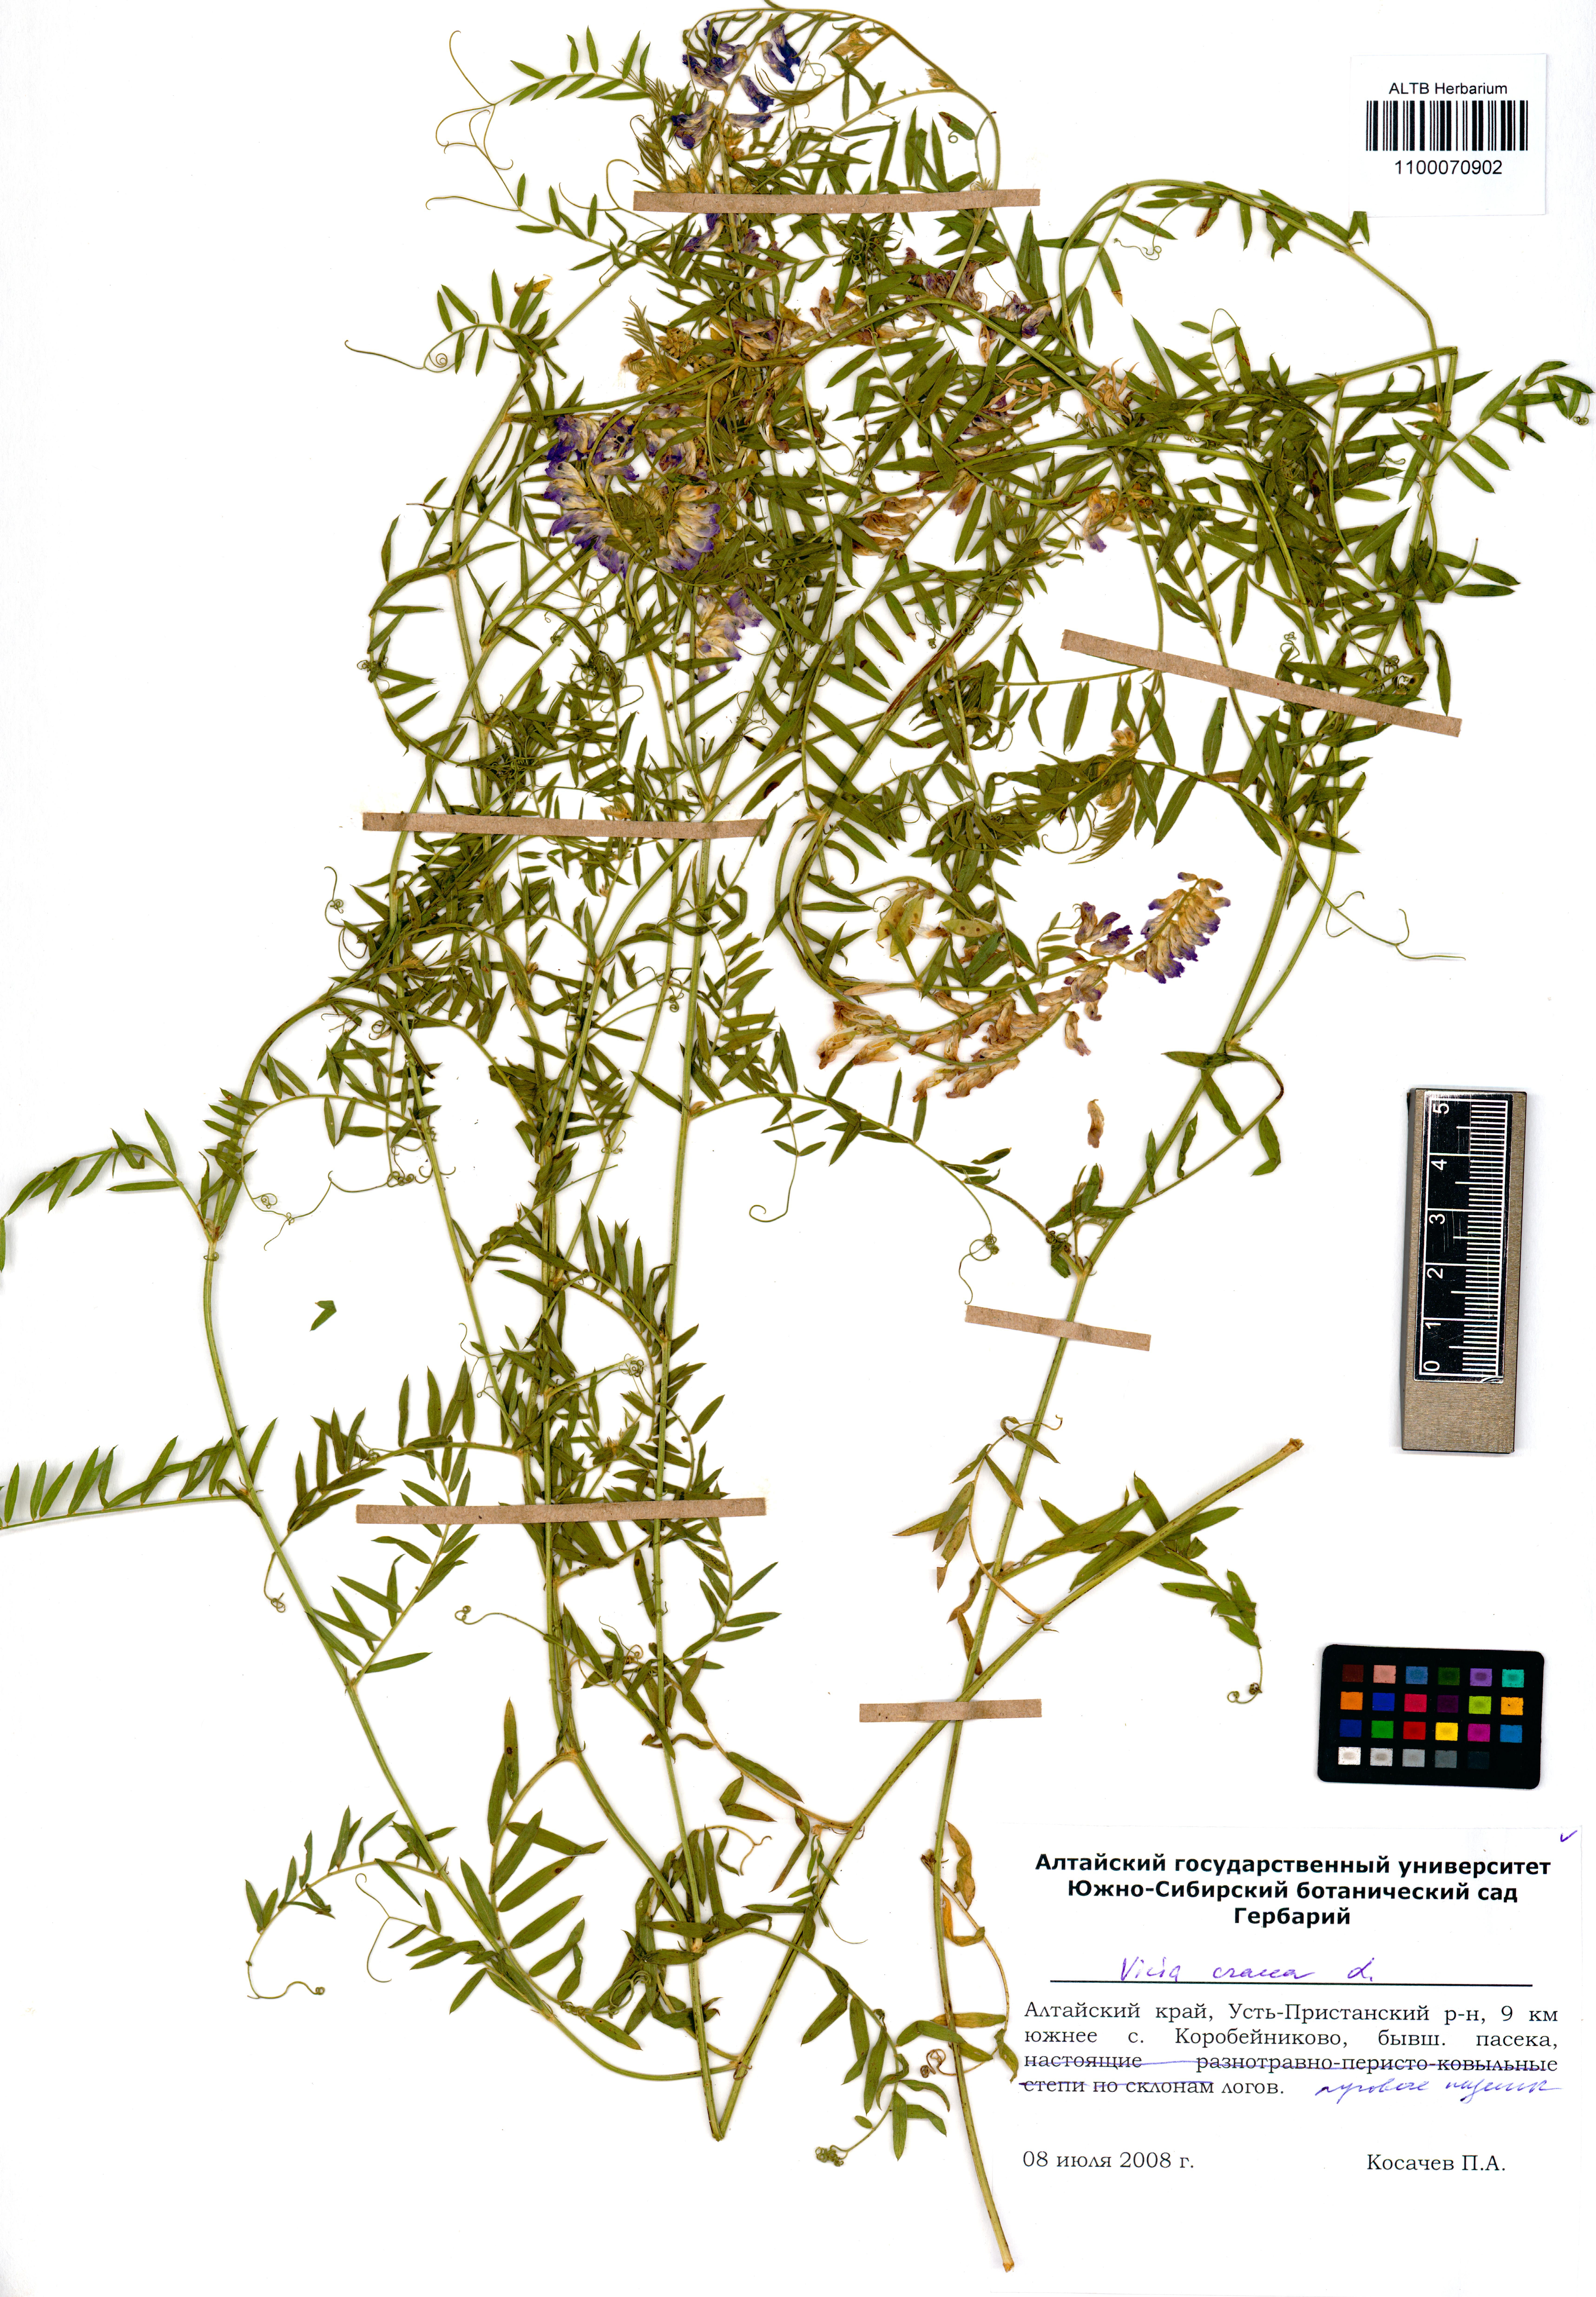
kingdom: Plantae
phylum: Tracheophyta
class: Magnoliopsida
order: Fabales
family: Fabaceae
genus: Vicia
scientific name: Vicia cracca
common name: Bird vetch
